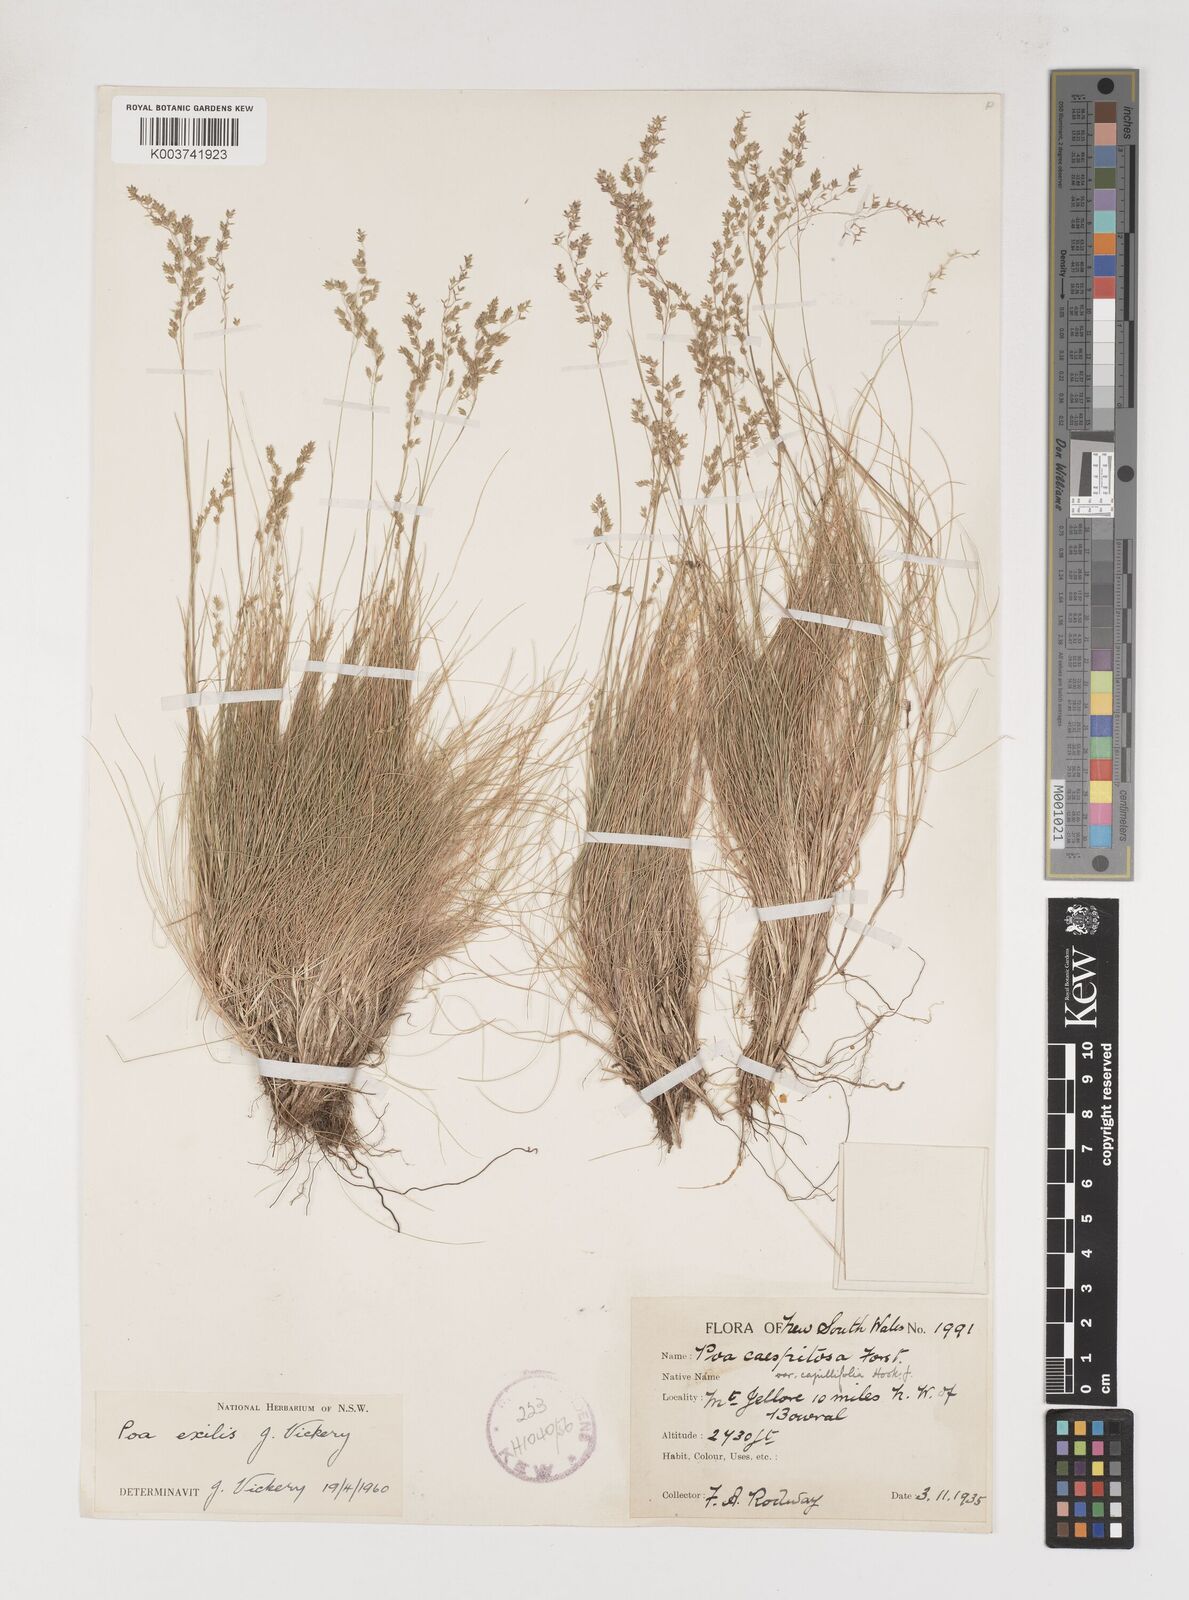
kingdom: Plantae
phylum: Tracheophyta
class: Liliopsida
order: Poales
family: Poaceae
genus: Poa
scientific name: Poa meionectes
